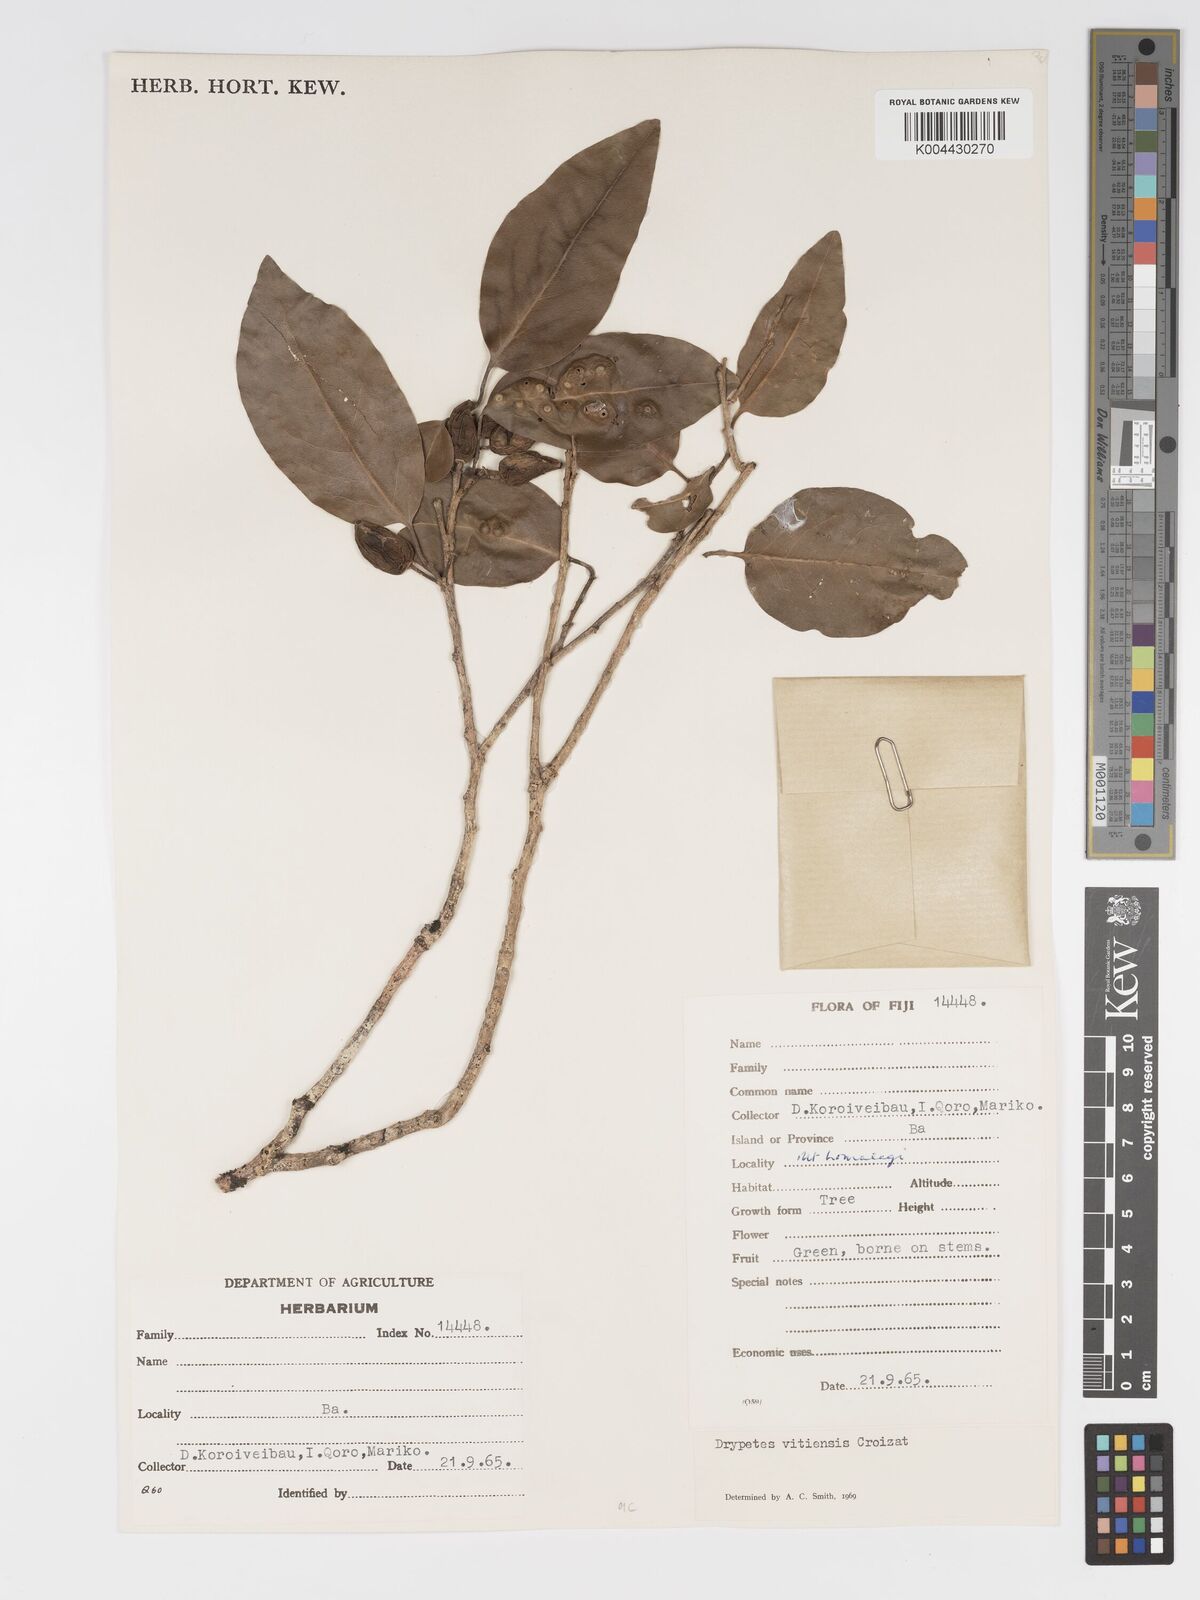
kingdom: Plantae
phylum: Tracheophyta
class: Magnoliopsida
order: Malpighiales
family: Putranjivaceae
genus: Drypetes
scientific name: Drypetes vitiensis
